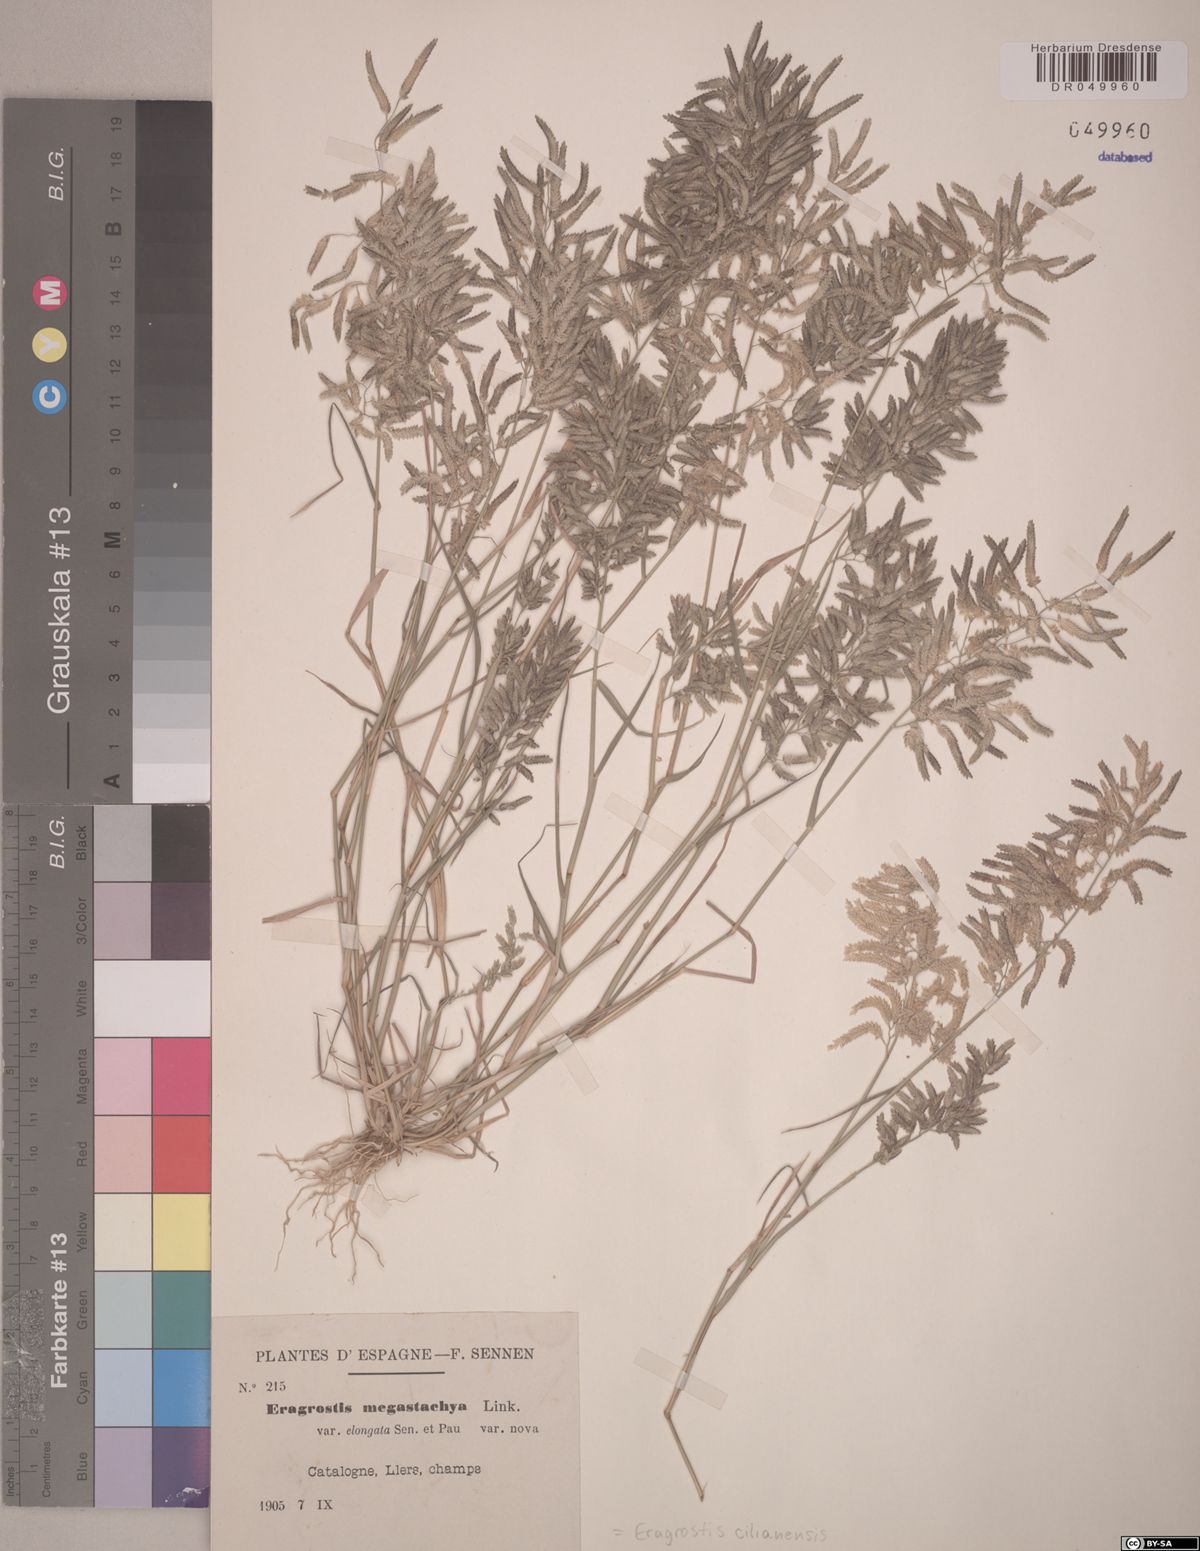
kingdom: Plantae
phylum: Tracheophyta
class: Liliopsida
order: Poales
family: Poaceae
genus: Eragrostis
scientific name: Eragrostis cilianensis
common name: Stinkgrass
